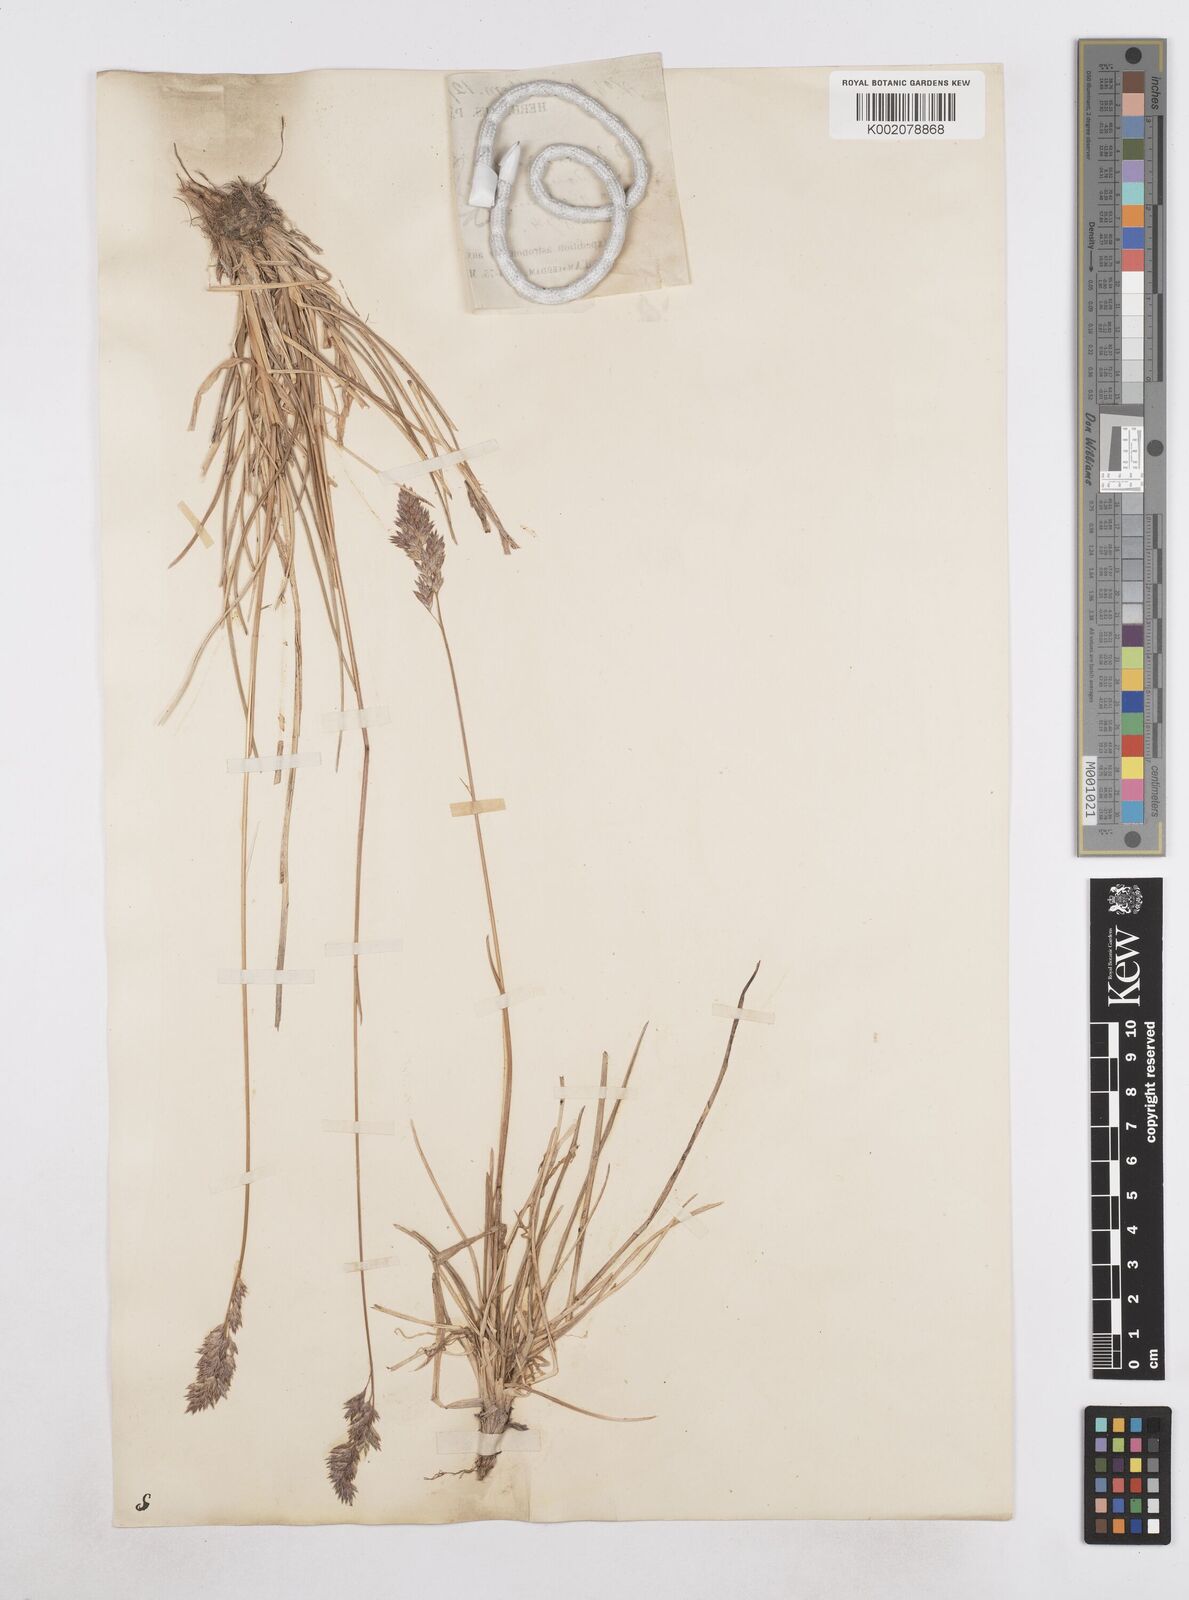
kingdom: Plantae
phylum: Tracheophyta
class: Liliopsida
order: Poales
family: Poaceae
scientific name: Poaceae
